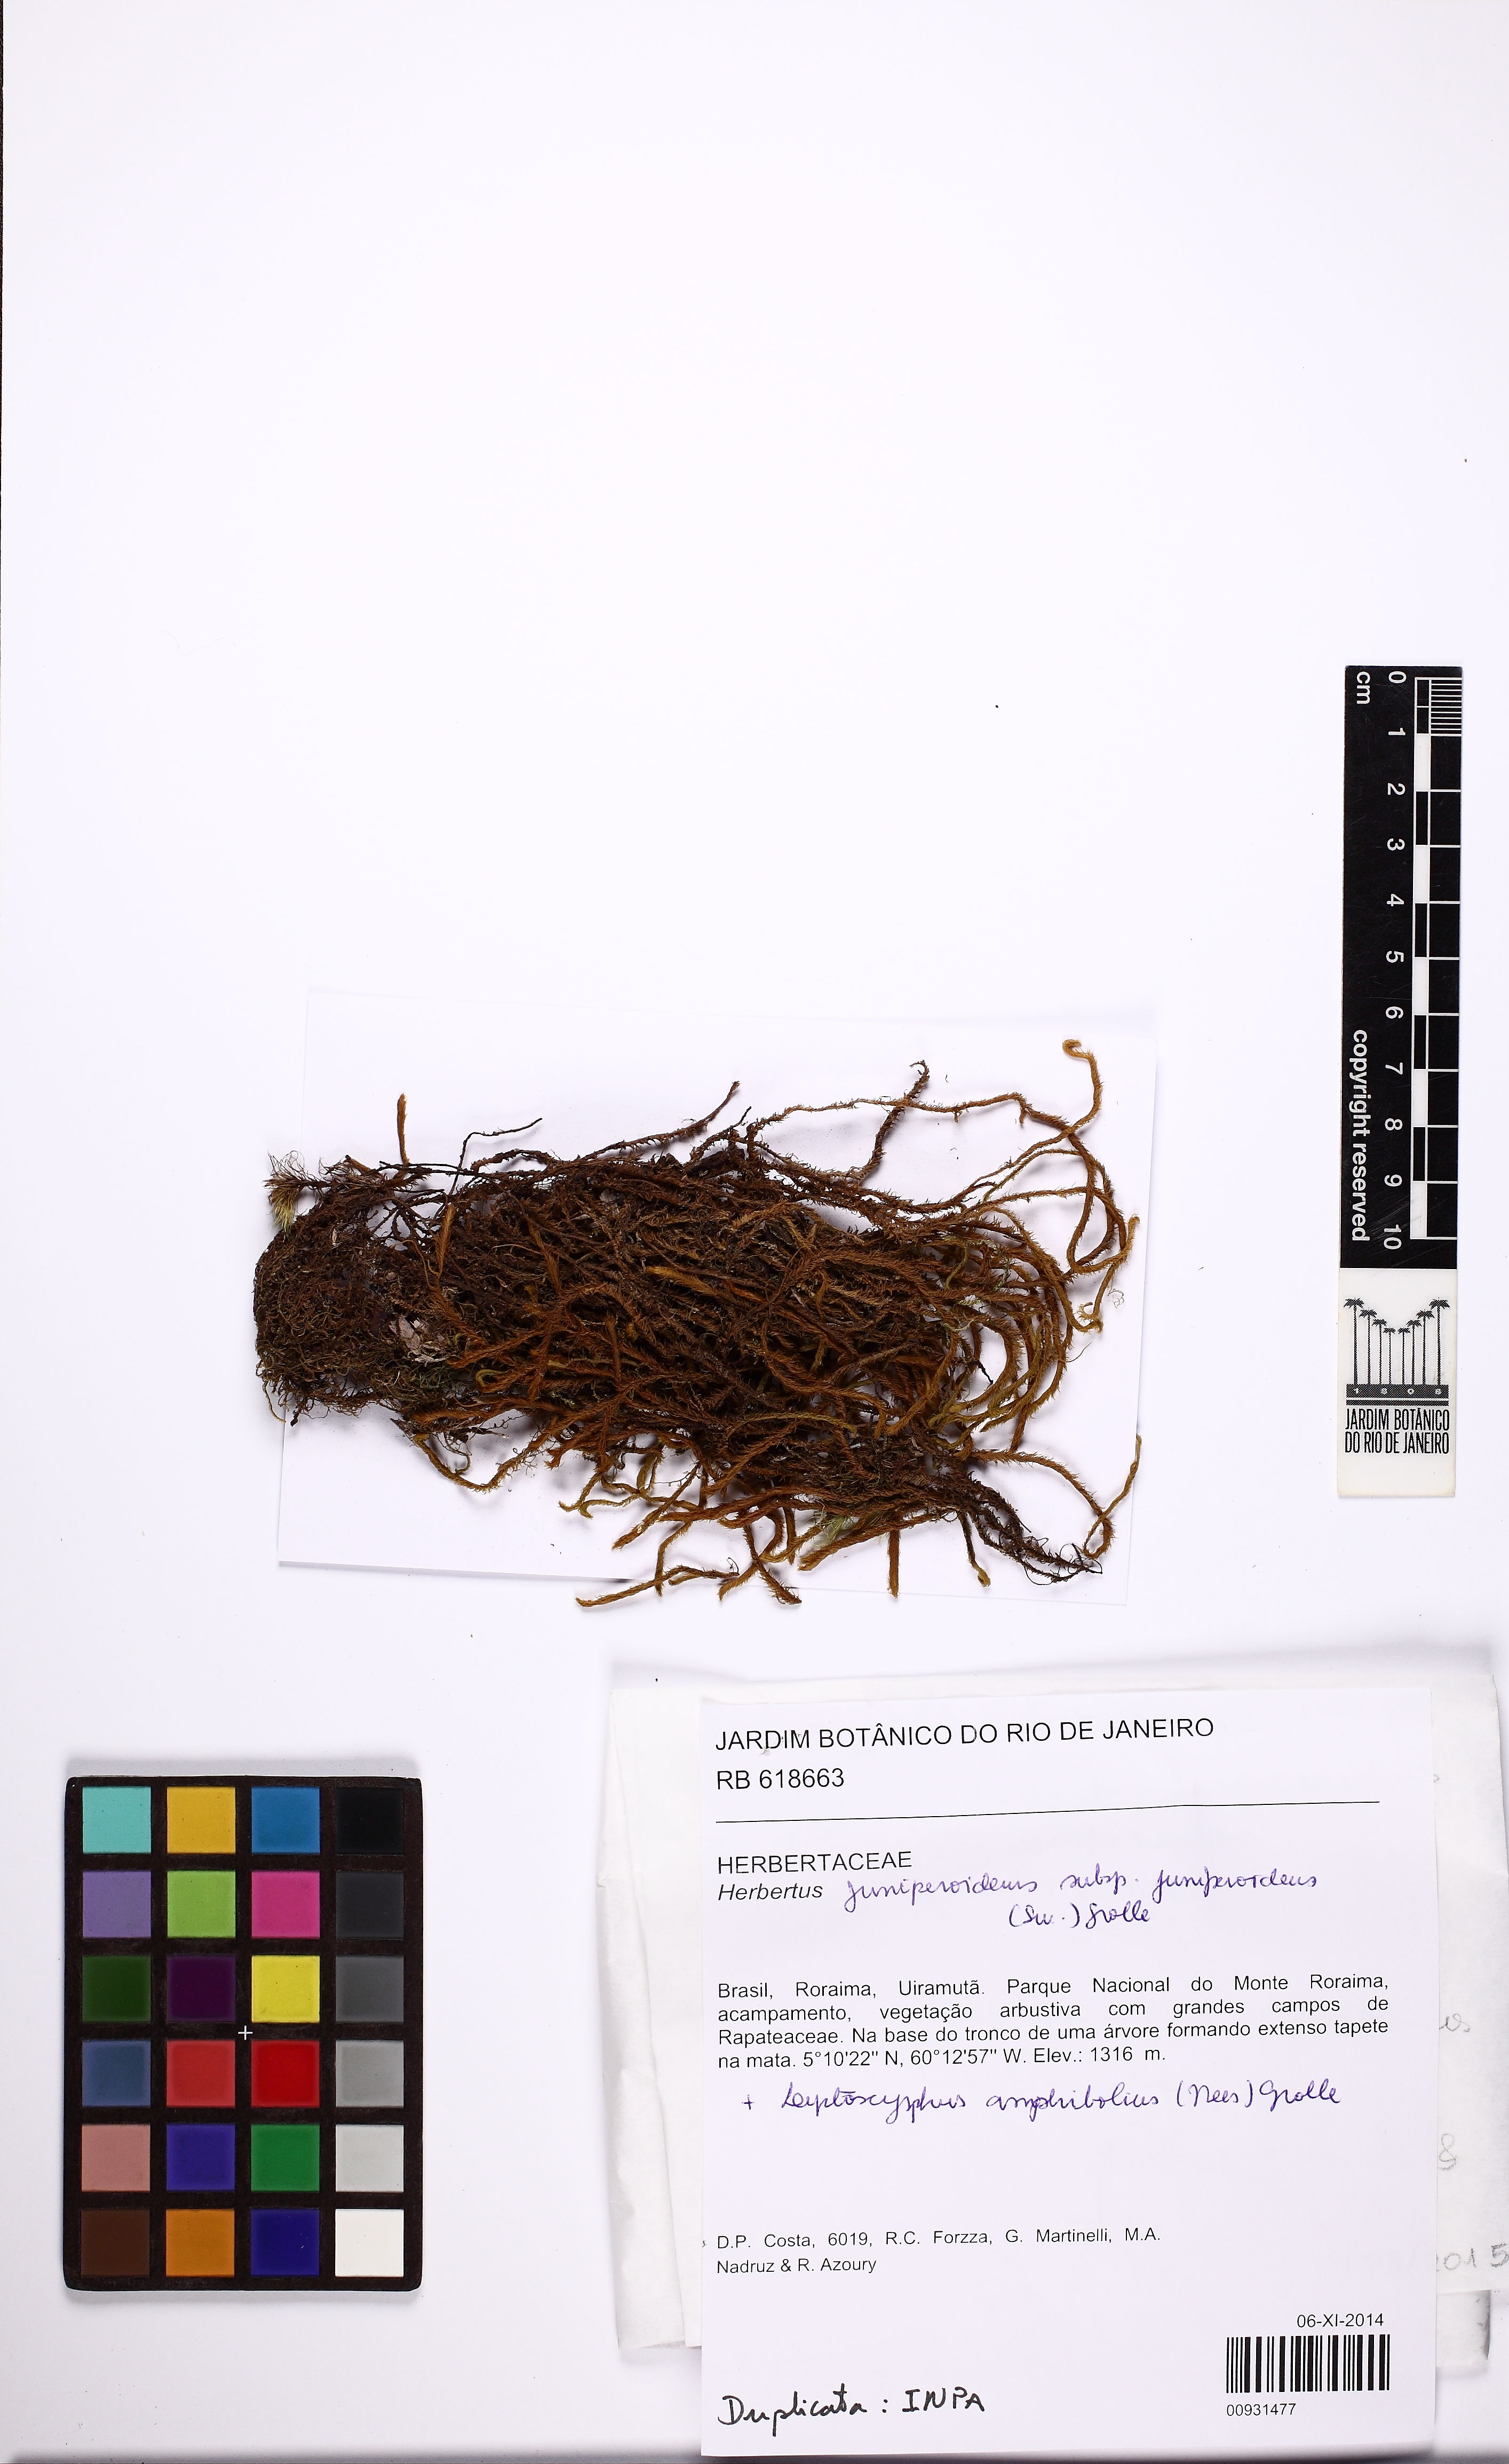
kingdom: Plantae
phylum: Marchantiophyta
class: Jungermanniopsida
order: Jungermanniales
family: Herbertaceae
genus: Herbertus
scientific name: Herbertus juniperoideus
